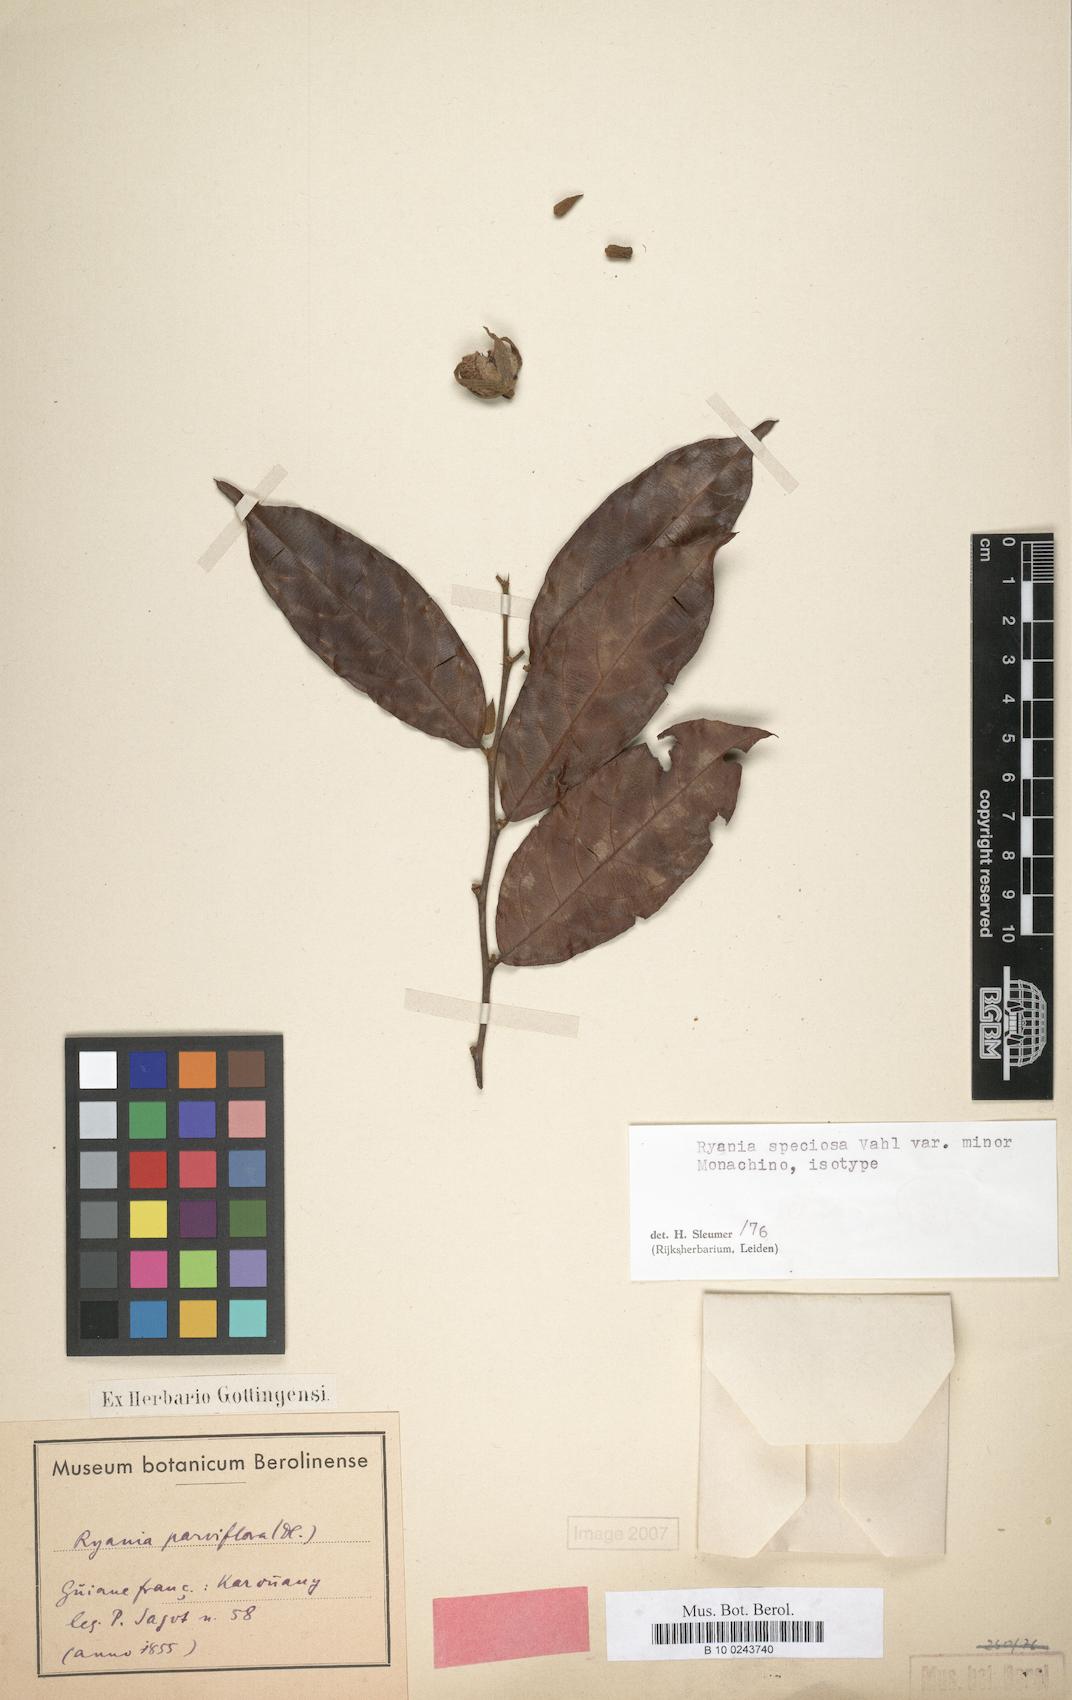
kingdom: Plantae
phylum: Tracheophyta
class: Magnoliopsida
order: Malpighiales
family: Salicaceae
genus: Ryania
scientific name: Ryania speciosa
